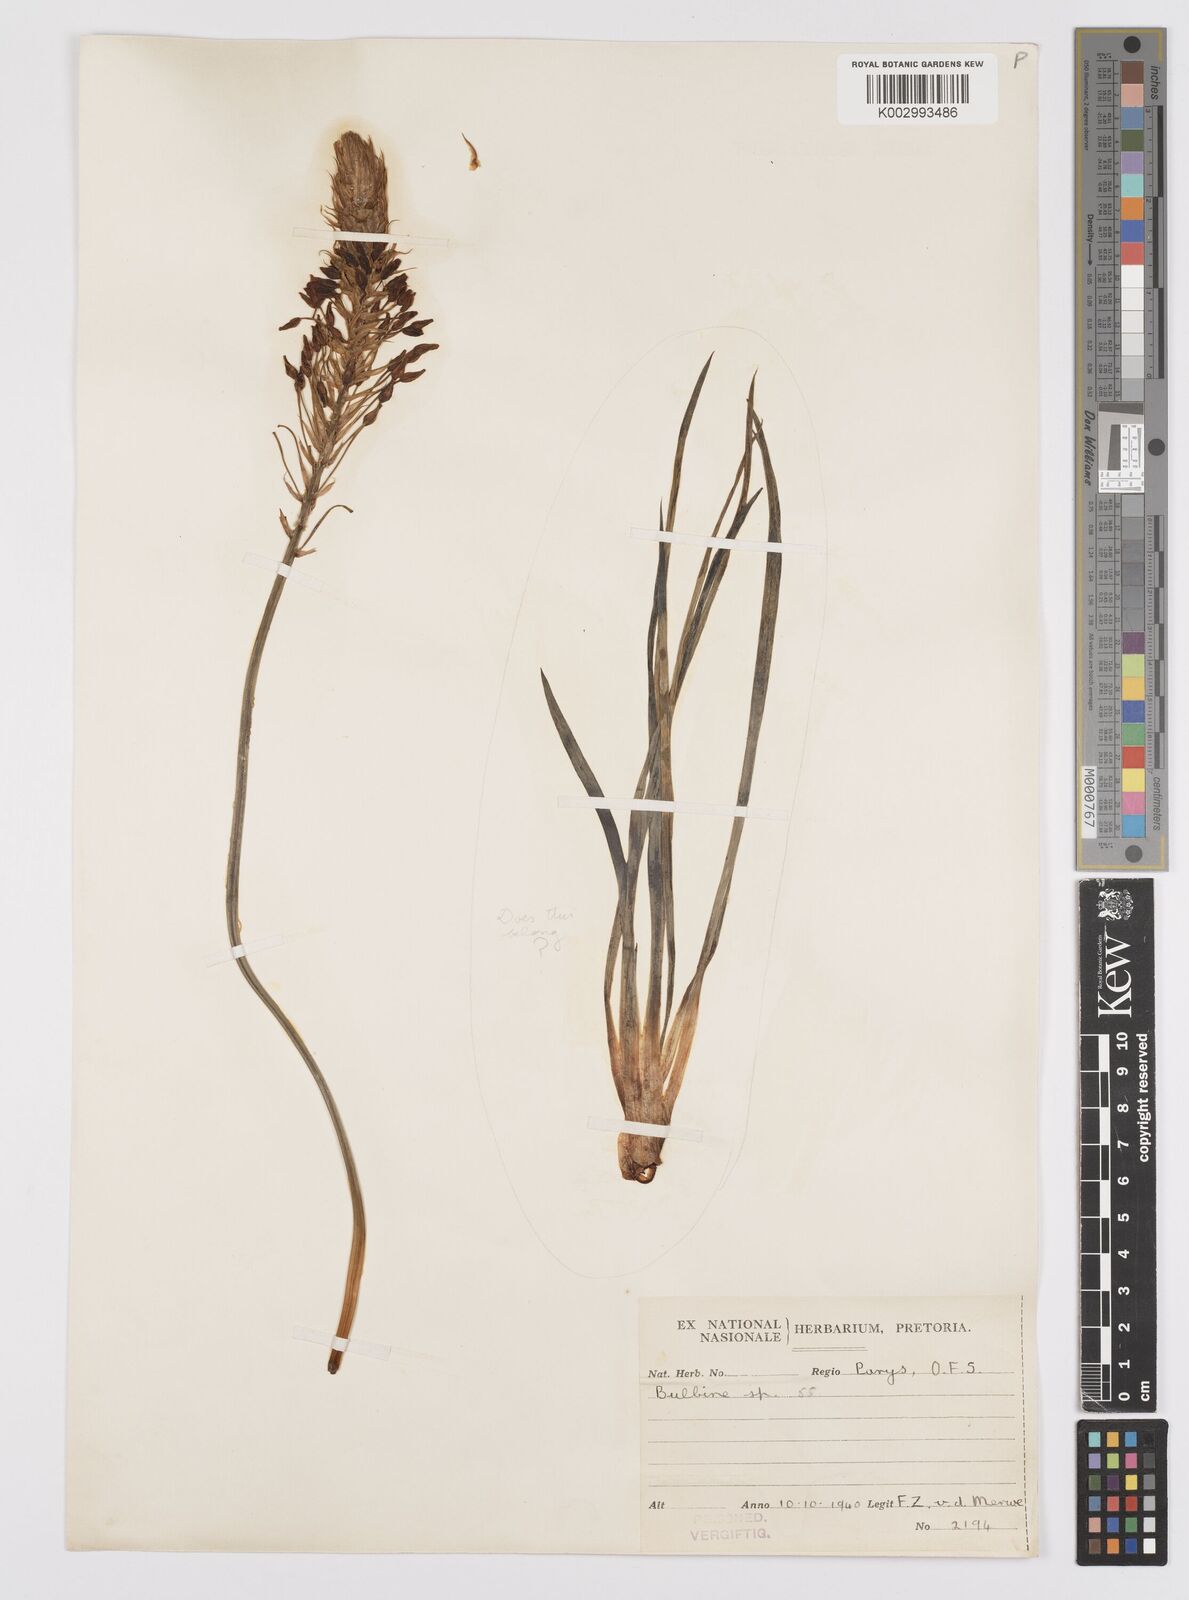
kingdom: Plantae
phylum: Tracheophyta
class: Liliopsida
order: Asparagales
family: Asphodelaceae
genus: Bulbine
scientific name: Bulbine abyssinica
